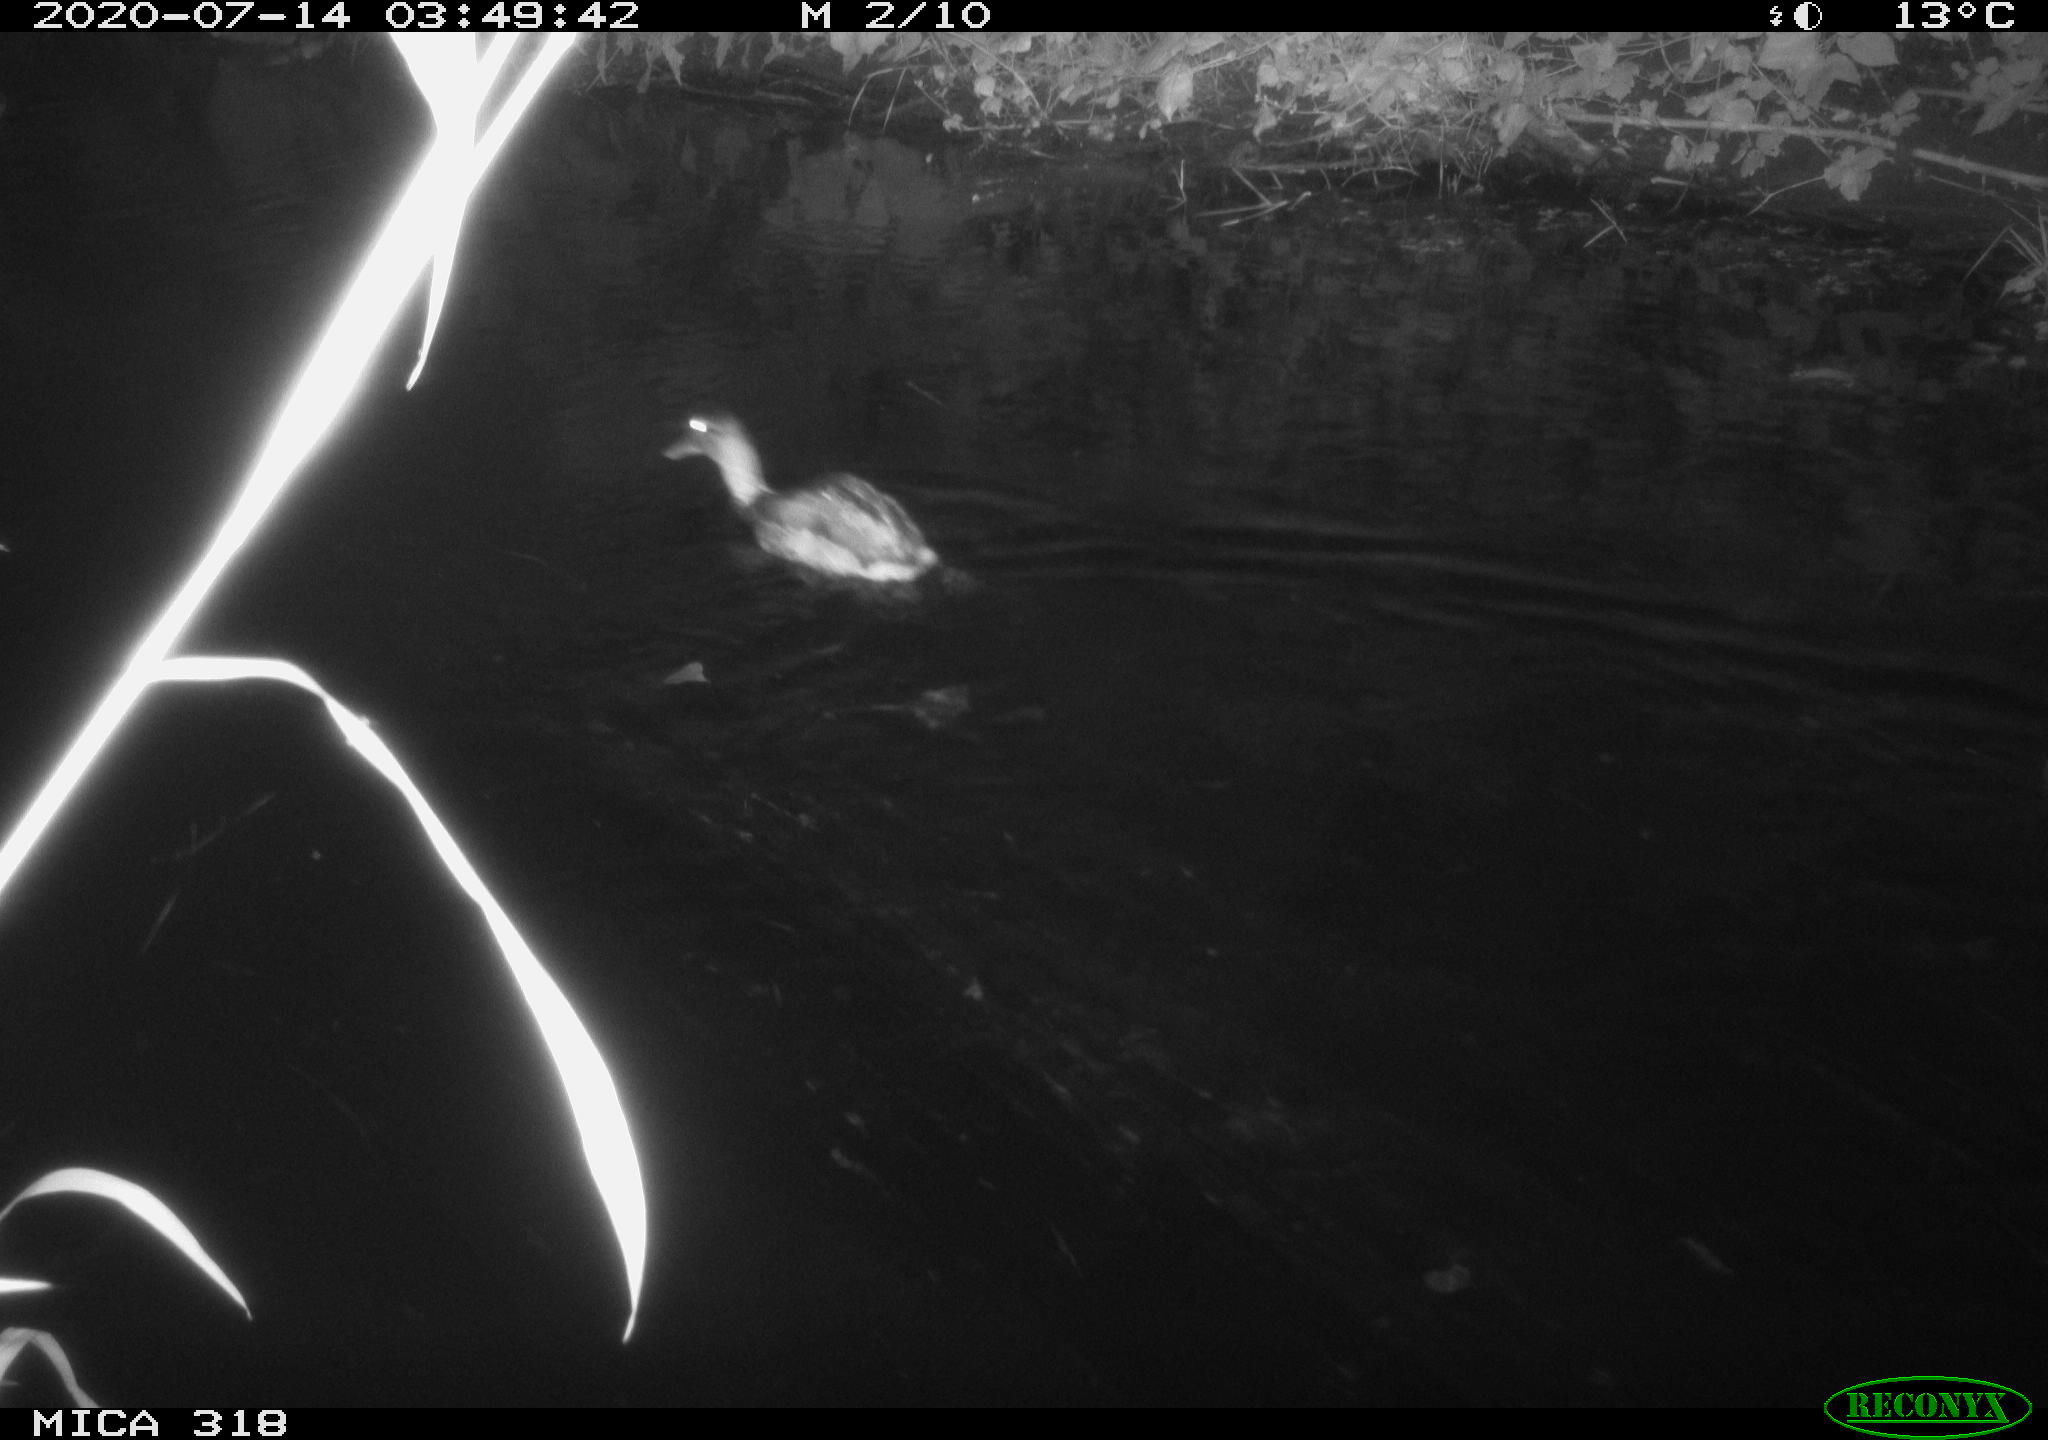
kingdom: Animalia
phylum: Chordata
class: Aves
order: Anseriformes
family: Anatidae
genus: Mareca
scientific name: Mareca strepera
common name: Gadwall
